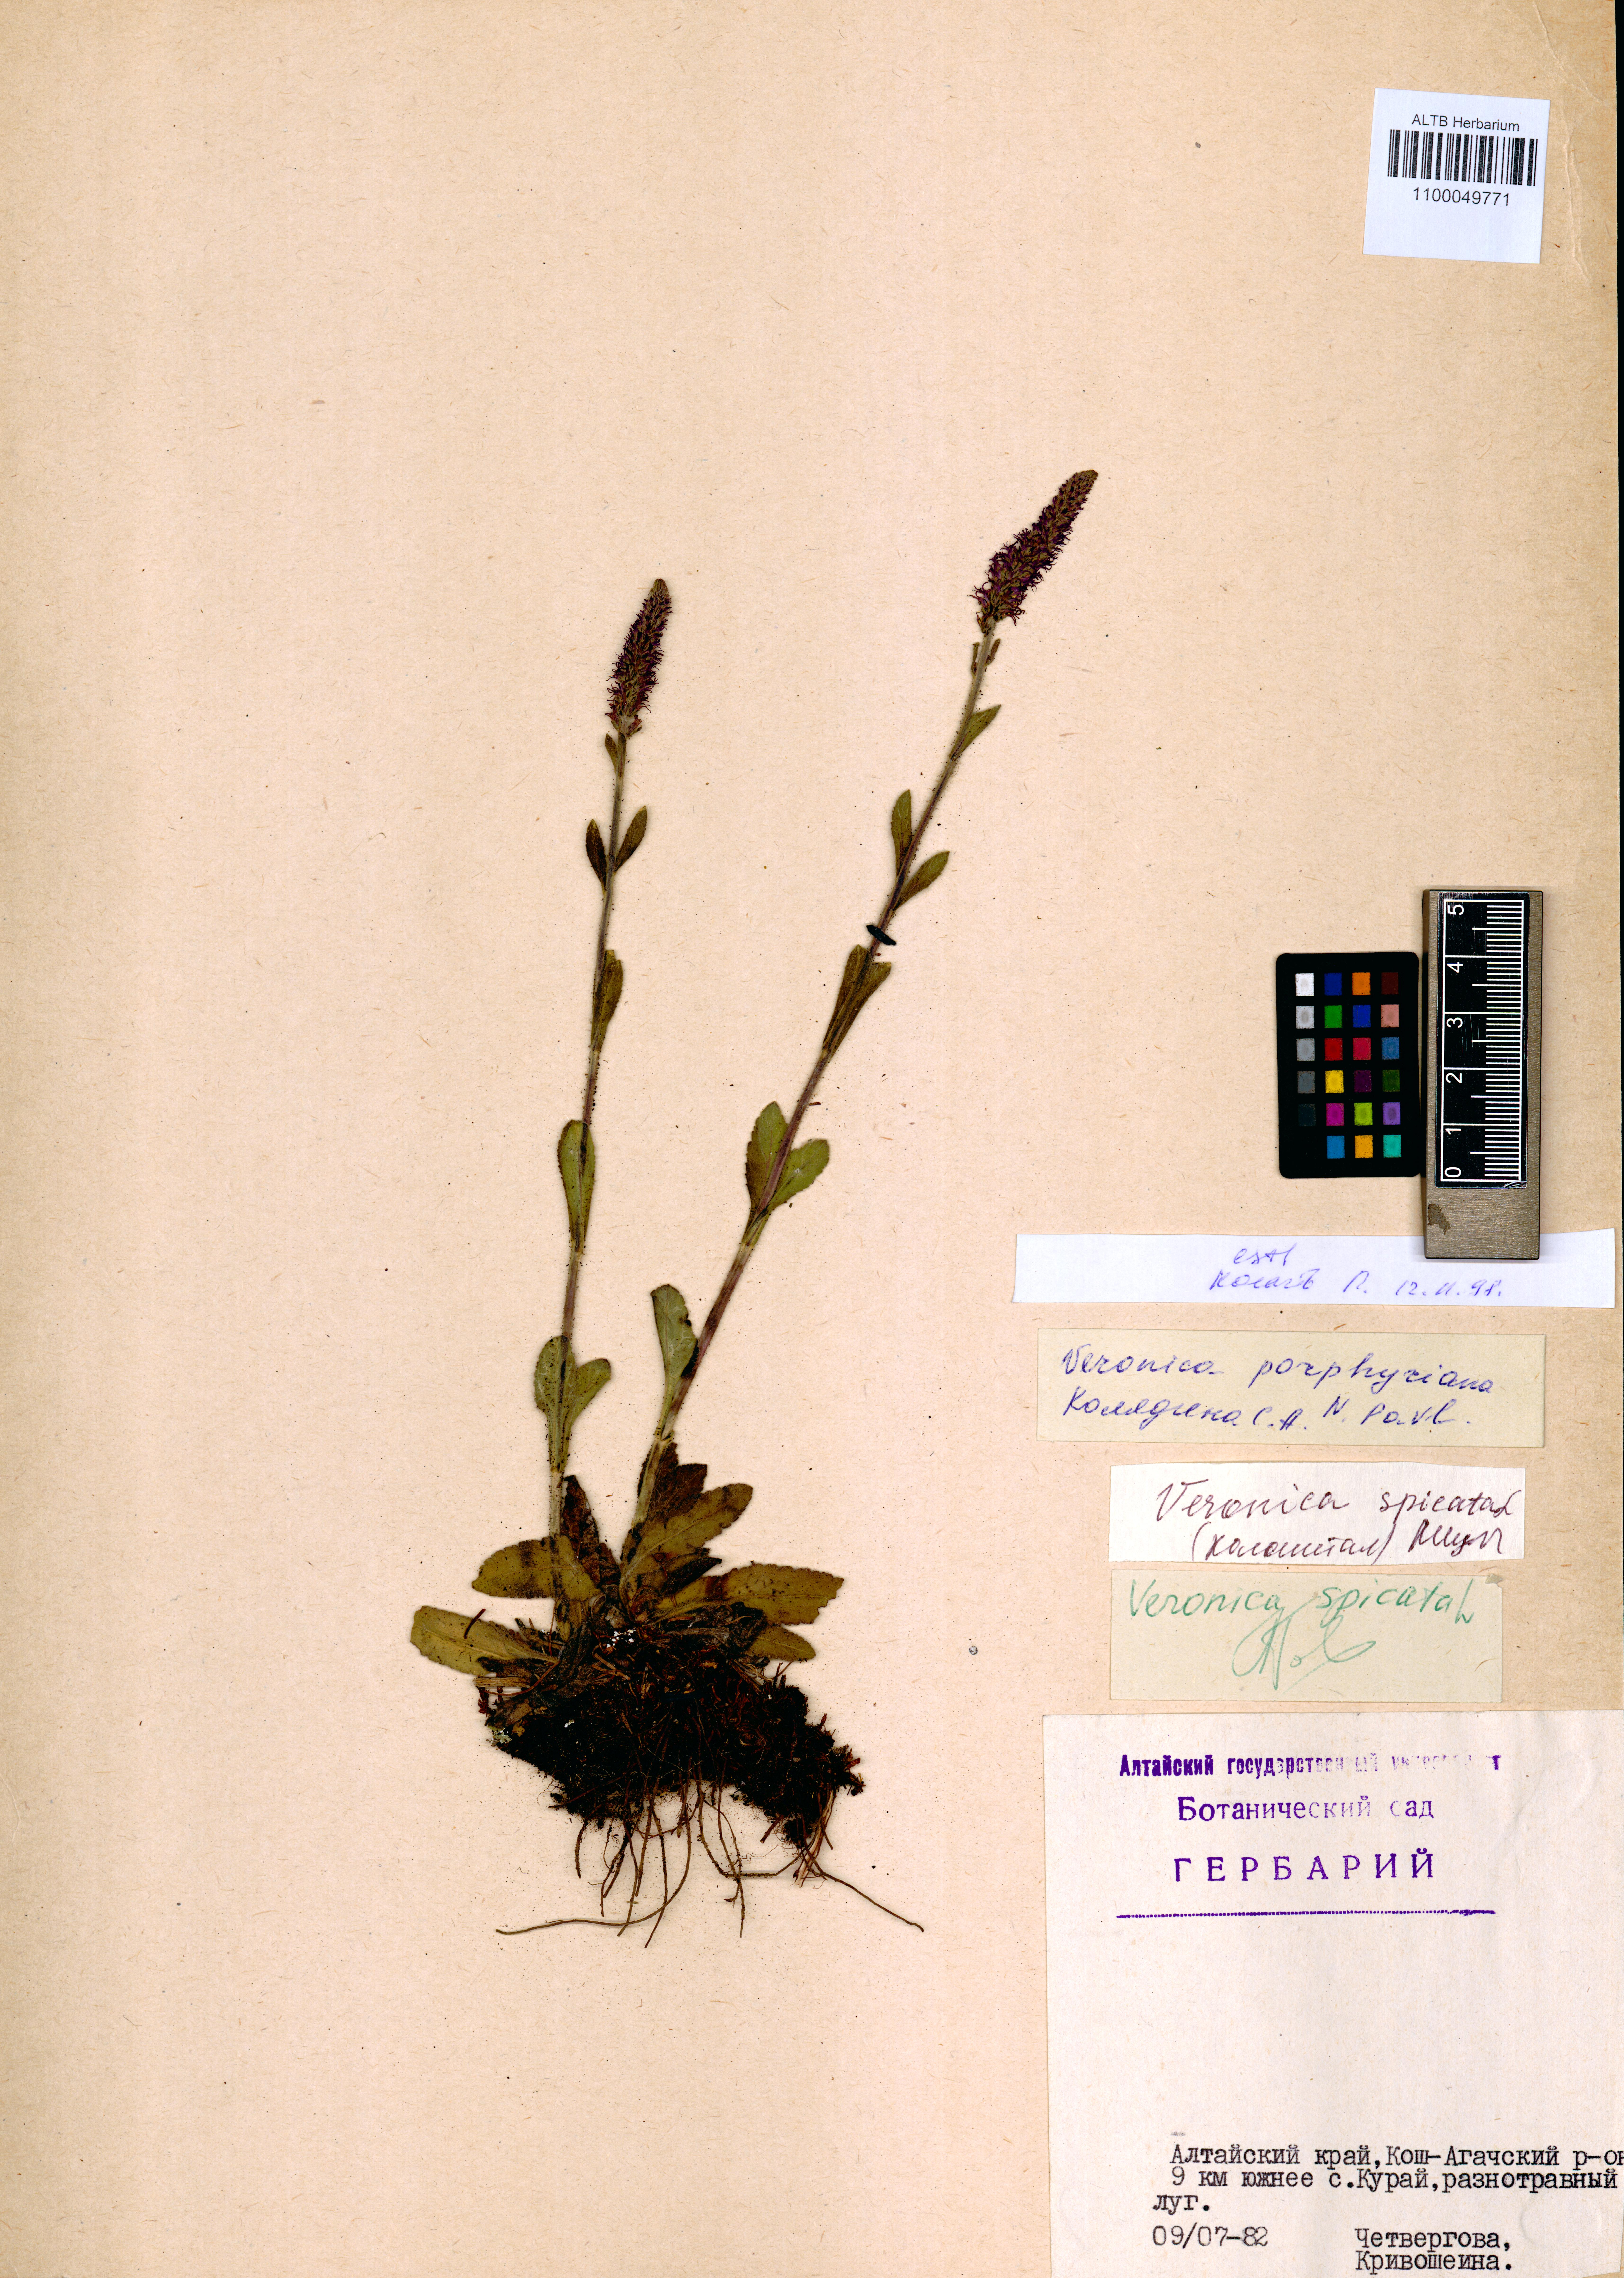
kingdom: Plantae
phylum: Tracheophyta
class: Magnoliopsida
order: Lamiales
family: Plantaginaceae
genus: Veronica
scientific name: Veronica porphyriana
